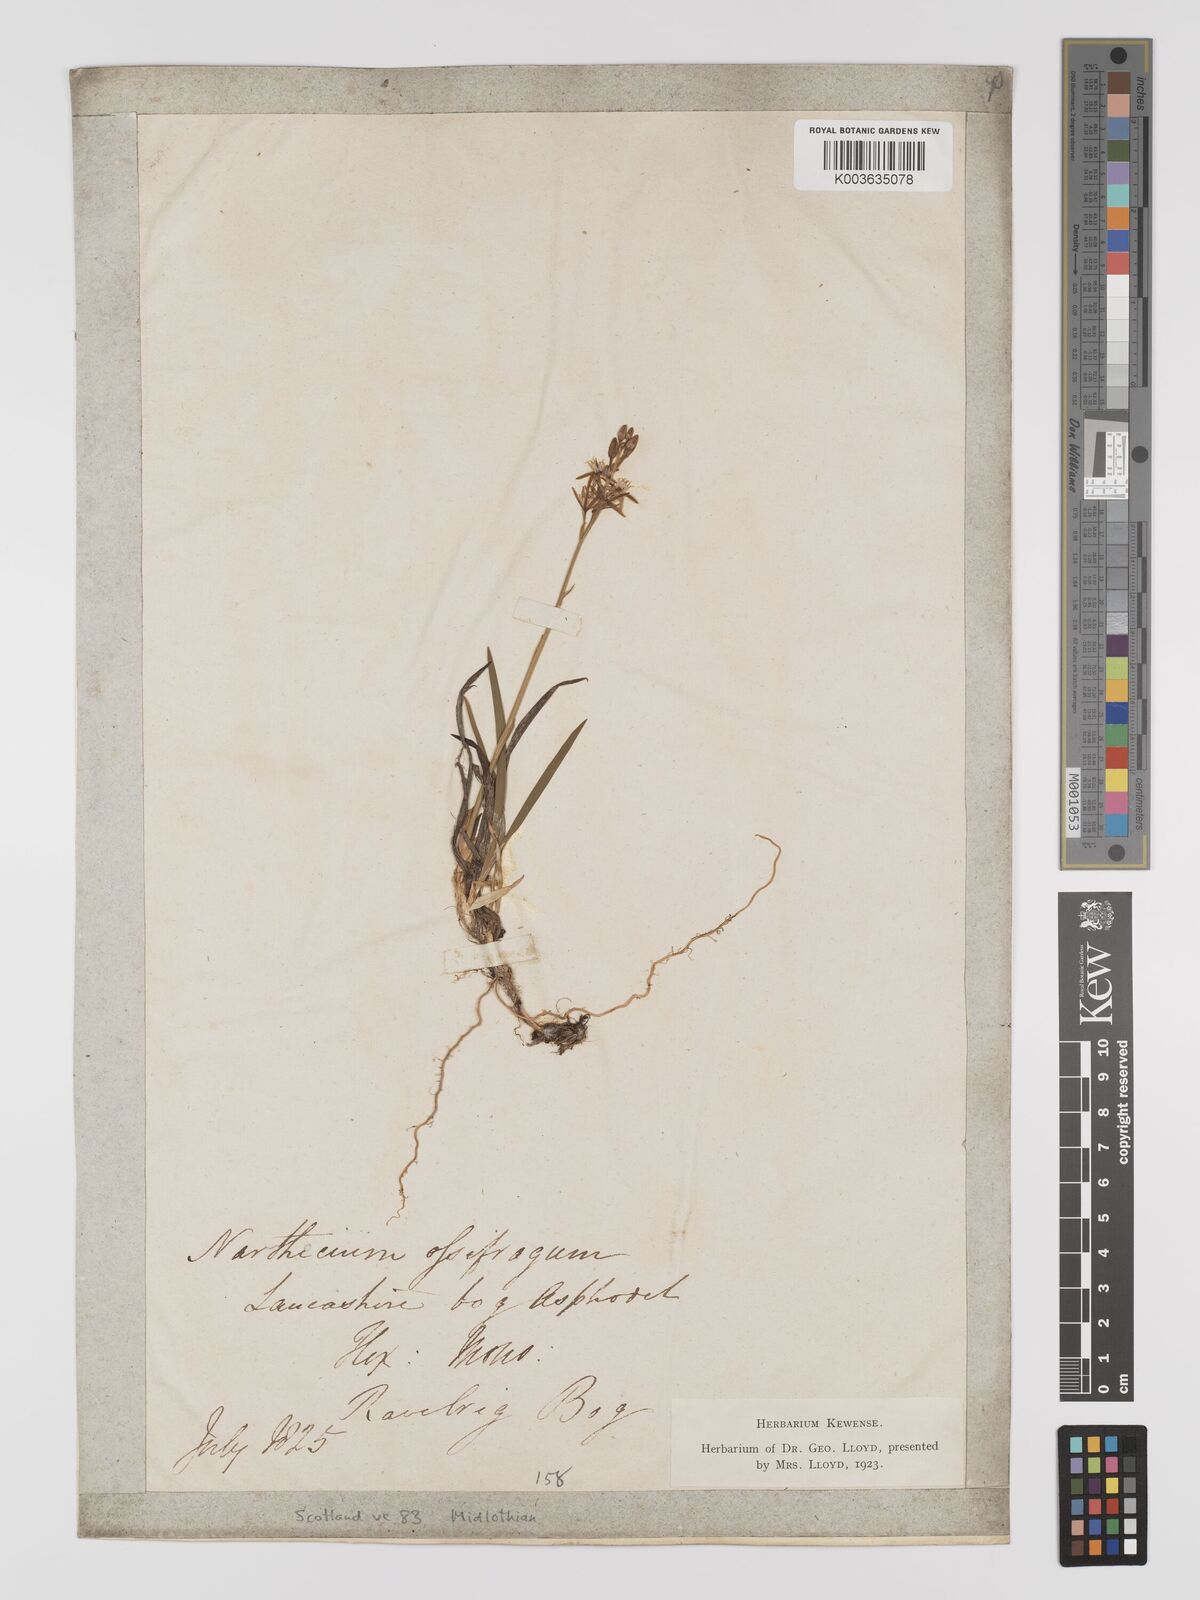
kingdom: Plantae
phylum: Tracheophyta
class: Liliopsida
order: Dioscoreales
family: Nartheciaceae
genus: Narthecium
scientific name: Narthecium
